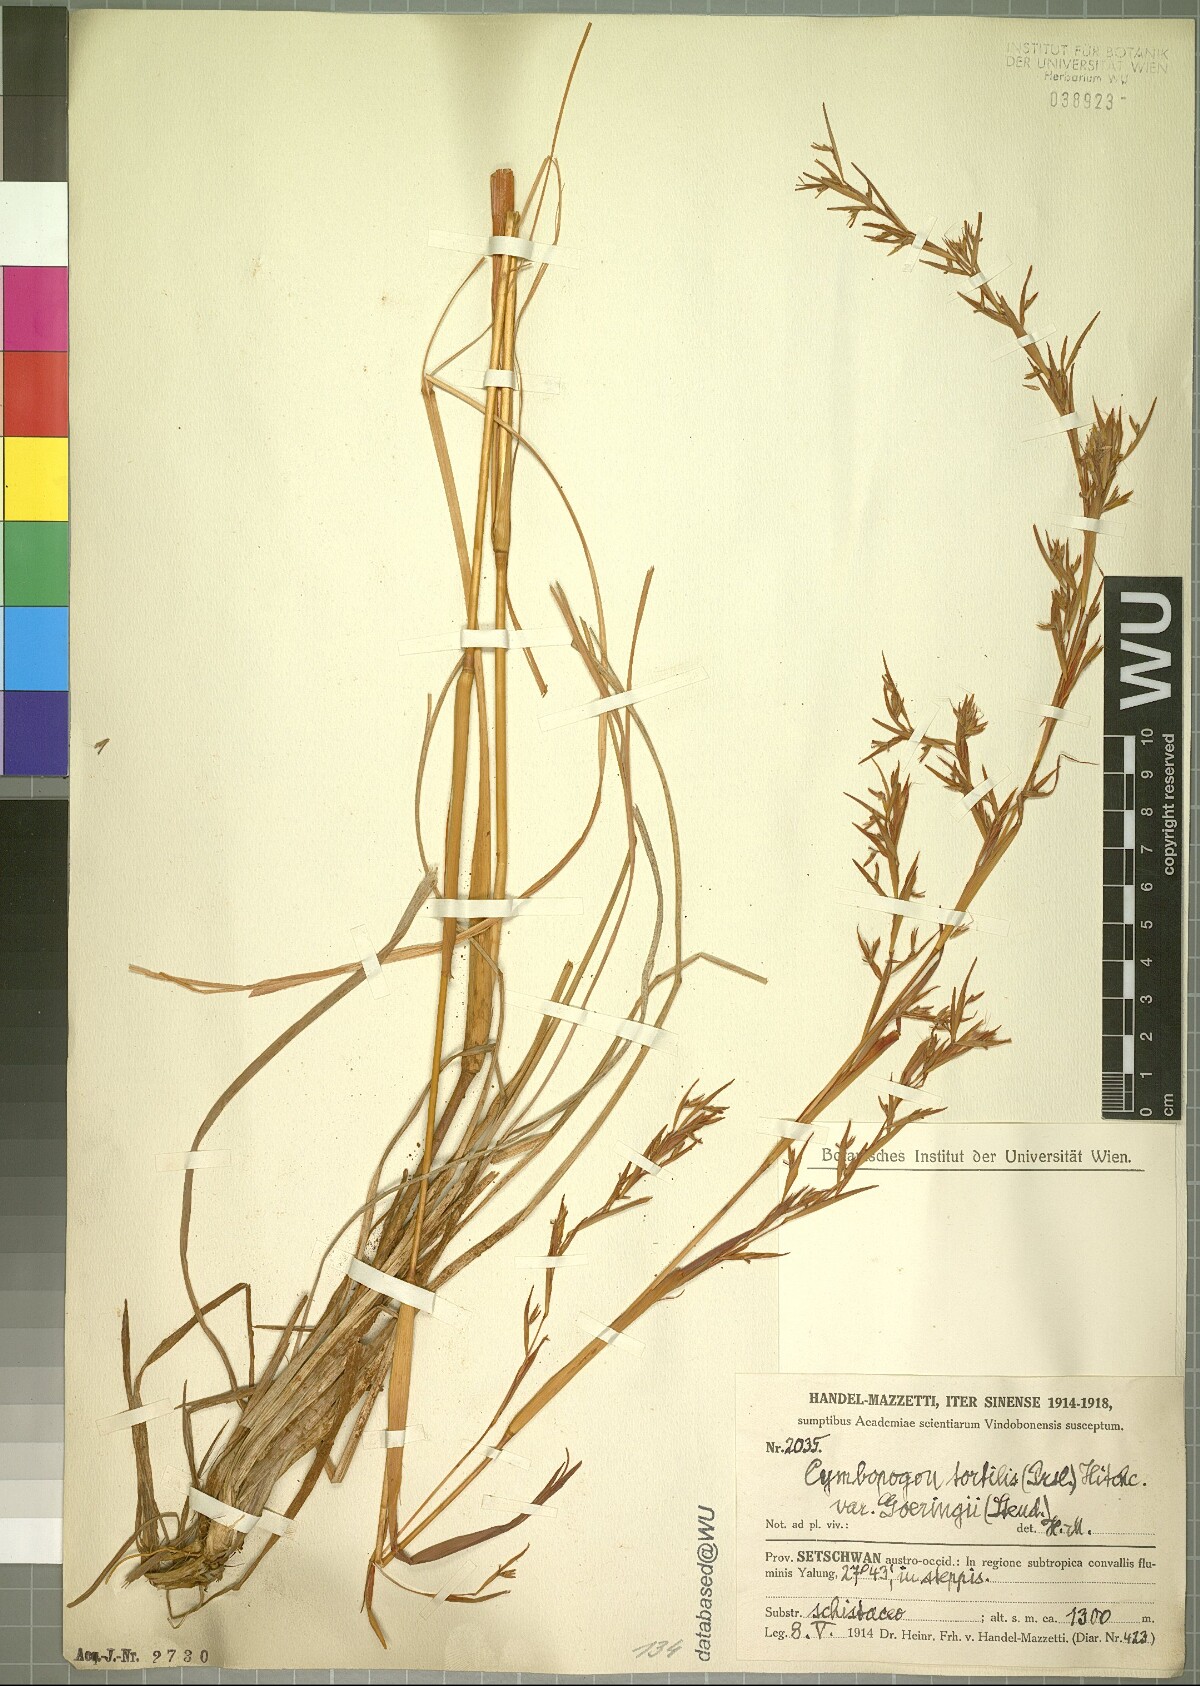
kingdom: Plantae
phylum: Tracheophyta
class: Liliopsida
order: Poales
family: Poaceae
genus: Cymbopogon
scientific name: Cymbopogon tortilis
